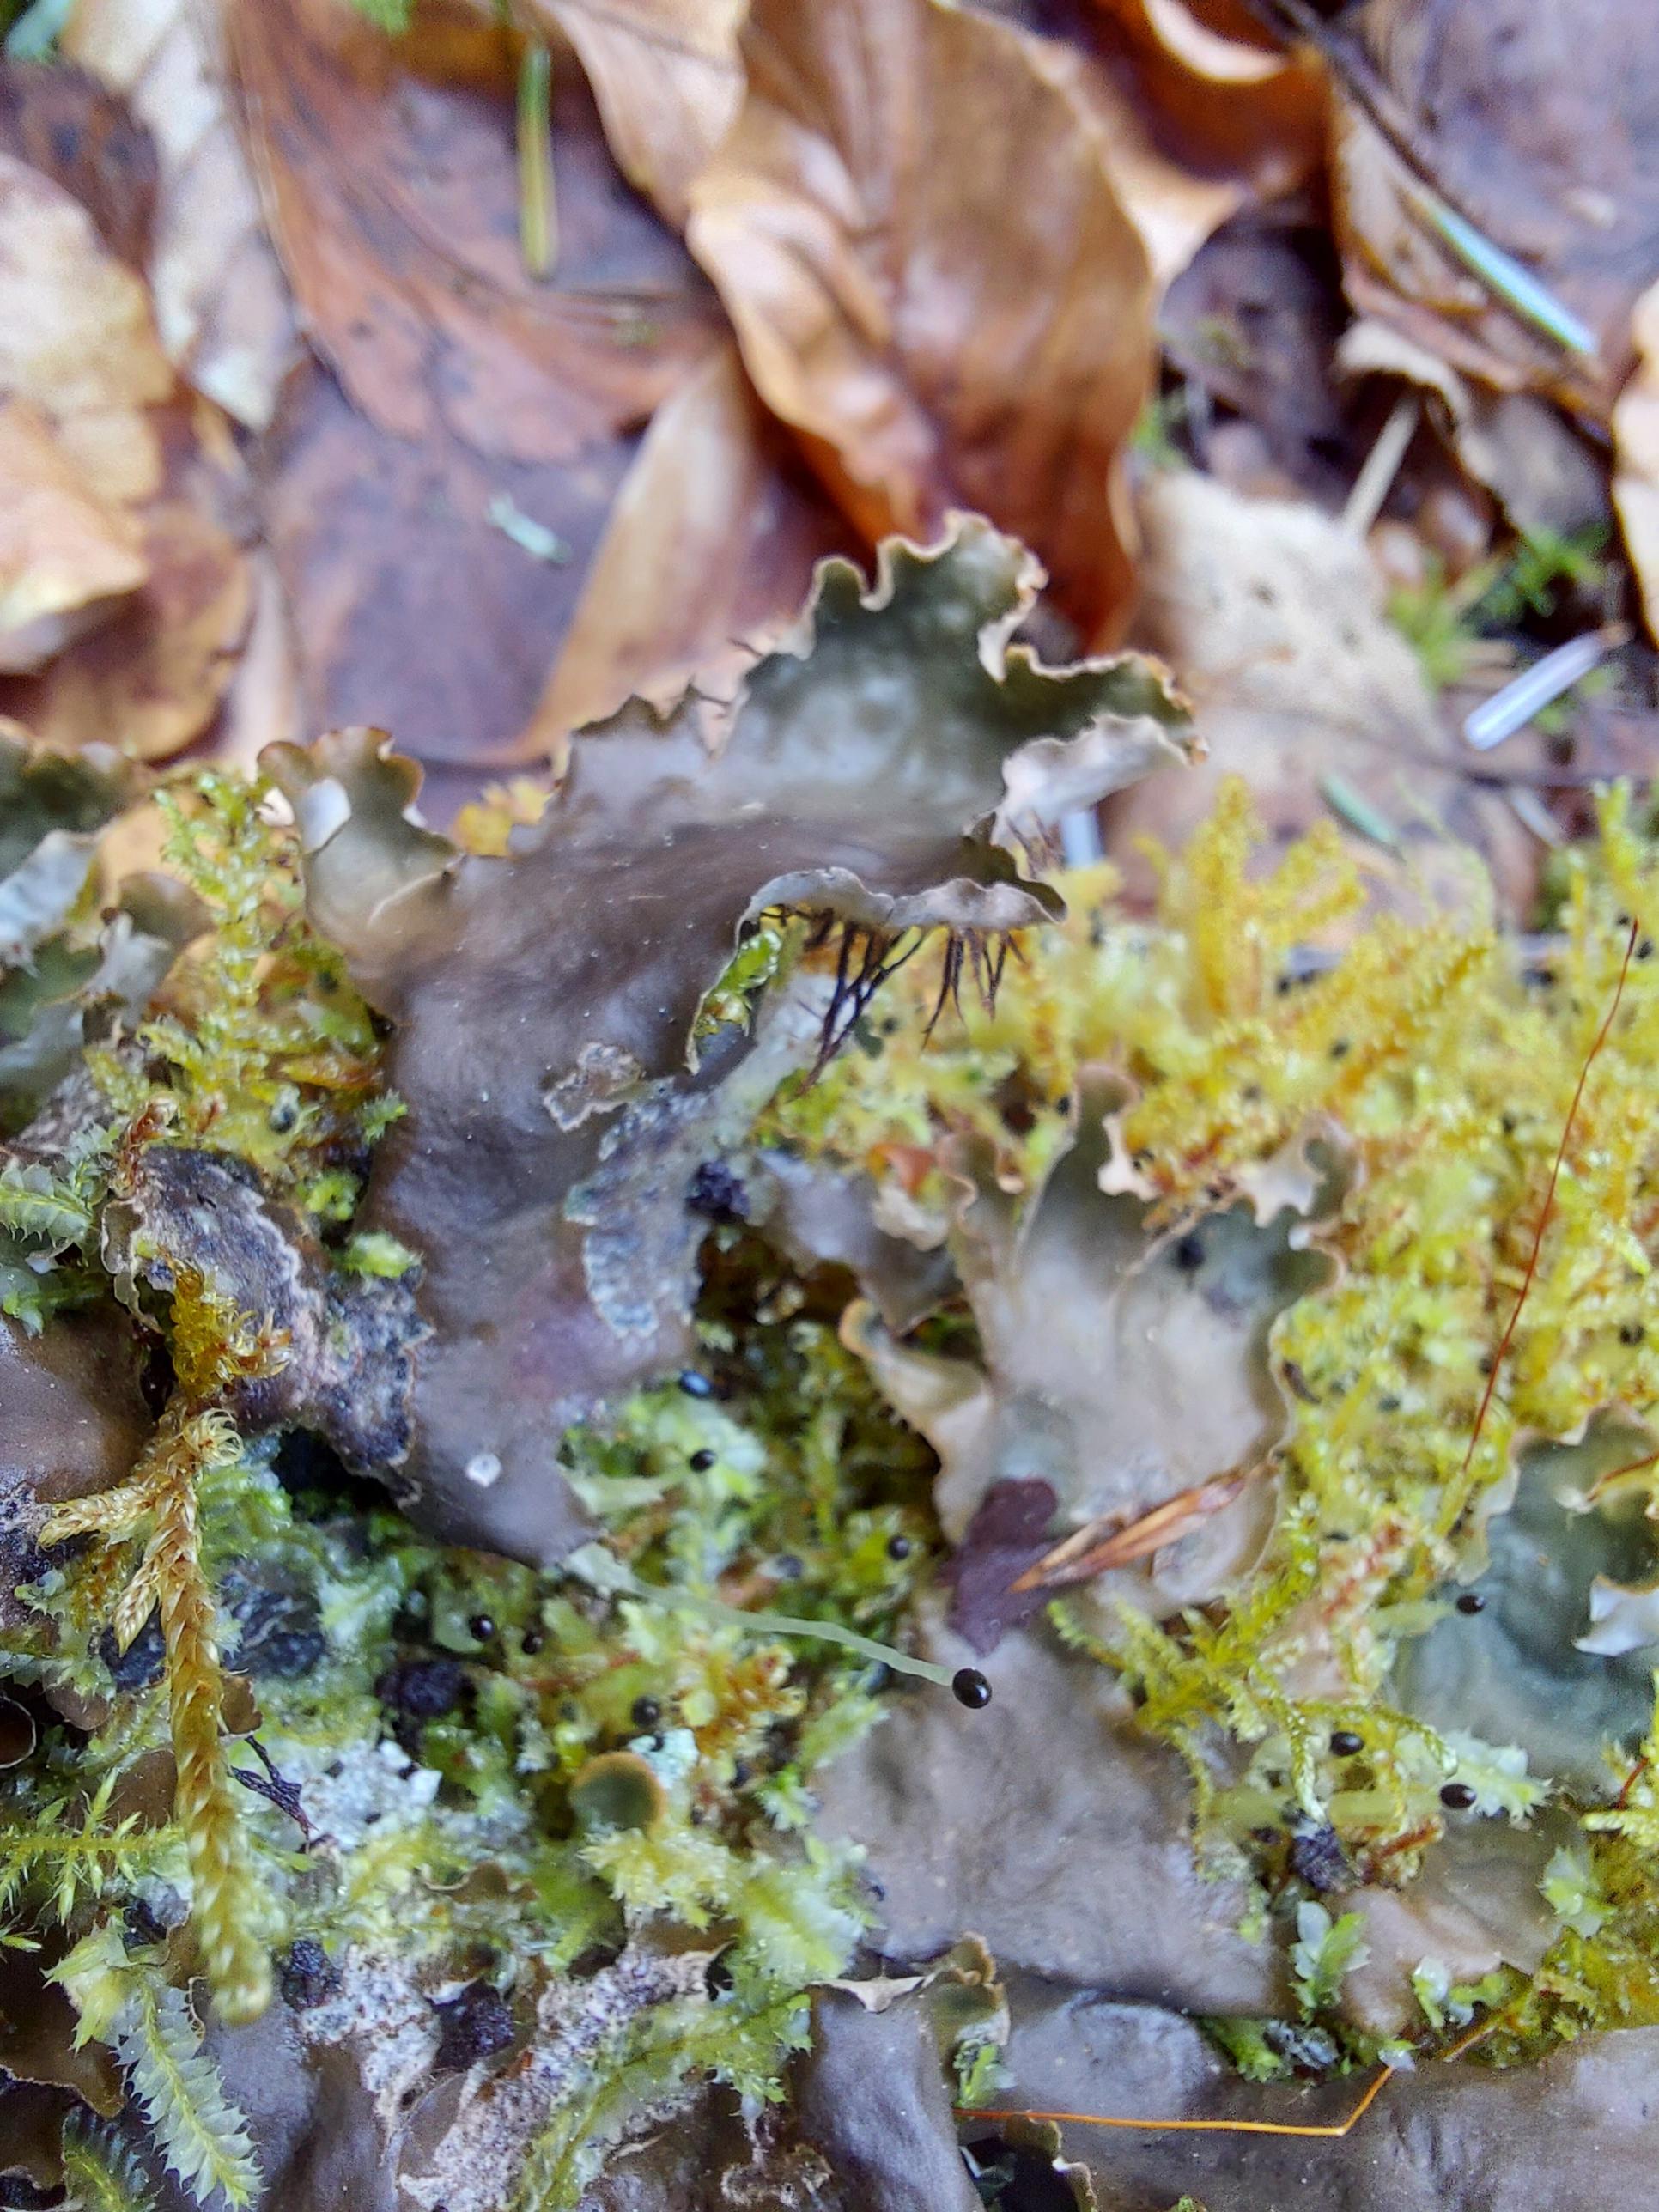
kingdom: Fungi
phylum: Ascomycota
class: Lecanoromycetes
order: Peltigerales
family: Peltigeraceae
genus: Peltigera
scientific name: Peltigera
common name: skjoldlav
